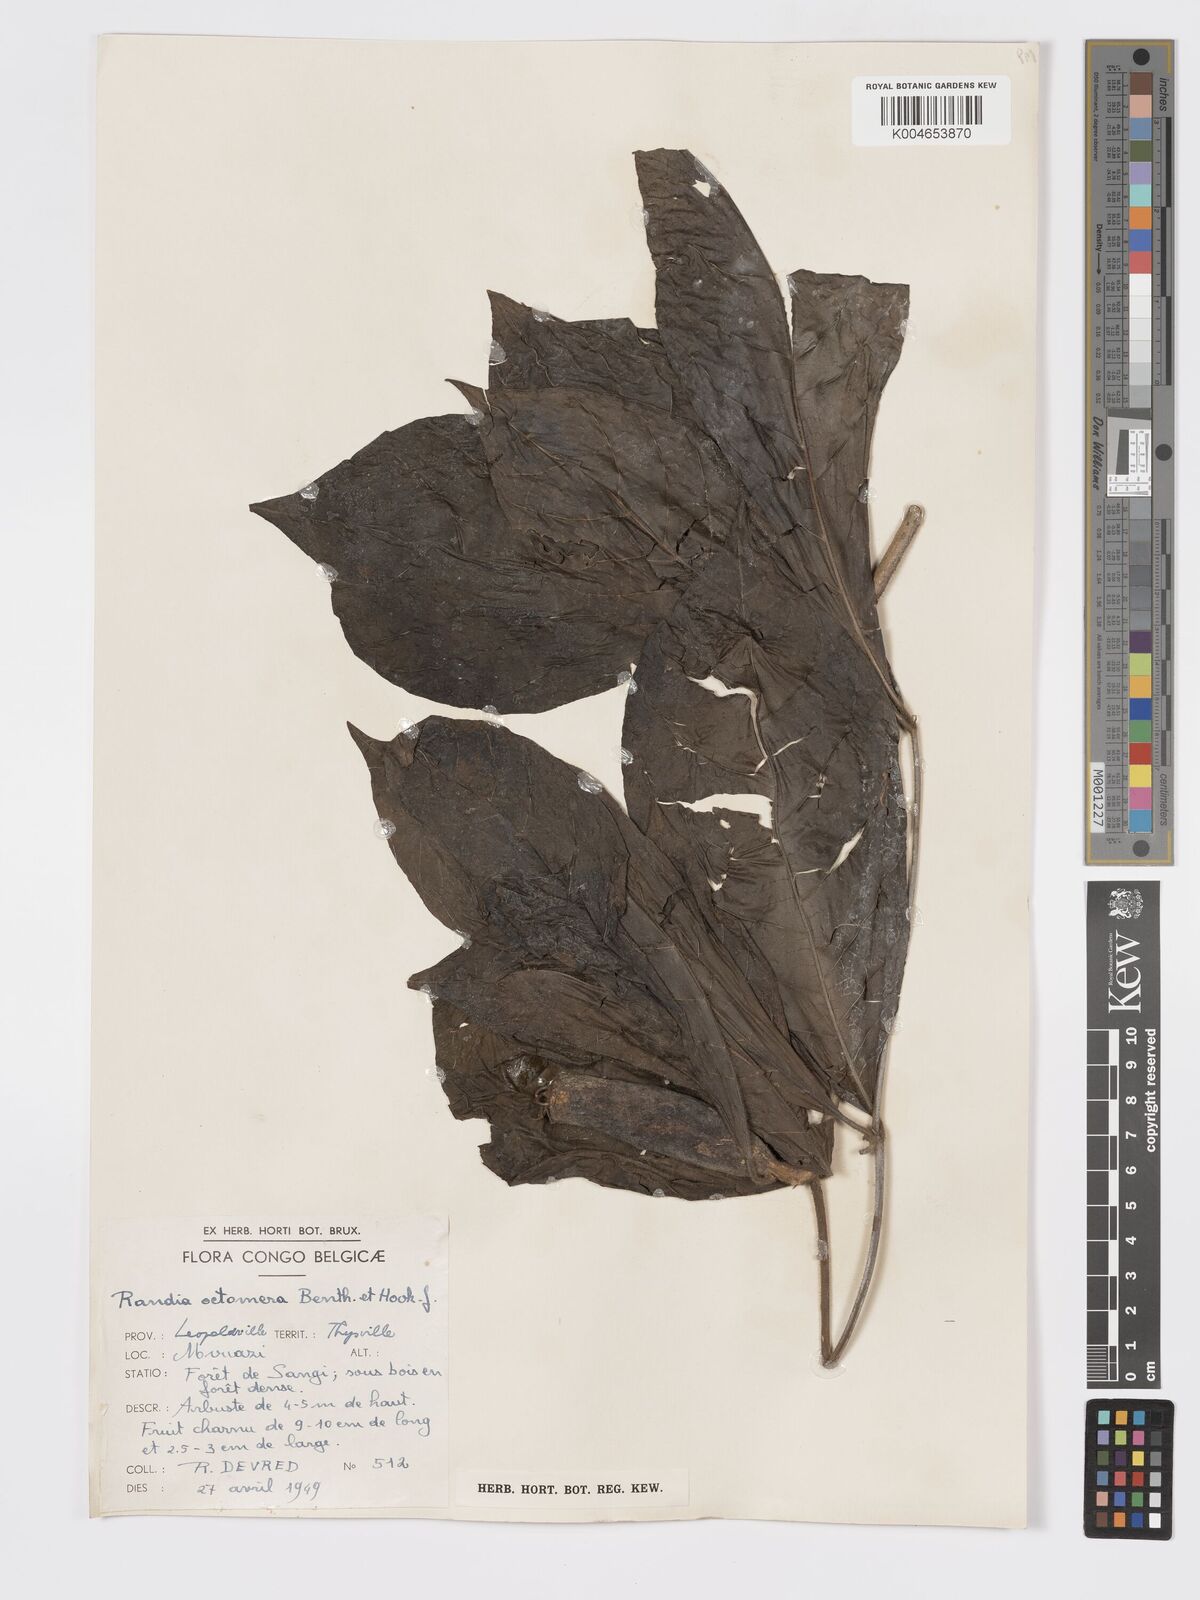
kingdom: Plantae
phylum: Tracheophyta
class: Magnoliopsida
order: Gentianales
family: Rubiaceae
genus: Rothmannia
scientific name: Rothmannia octomera
